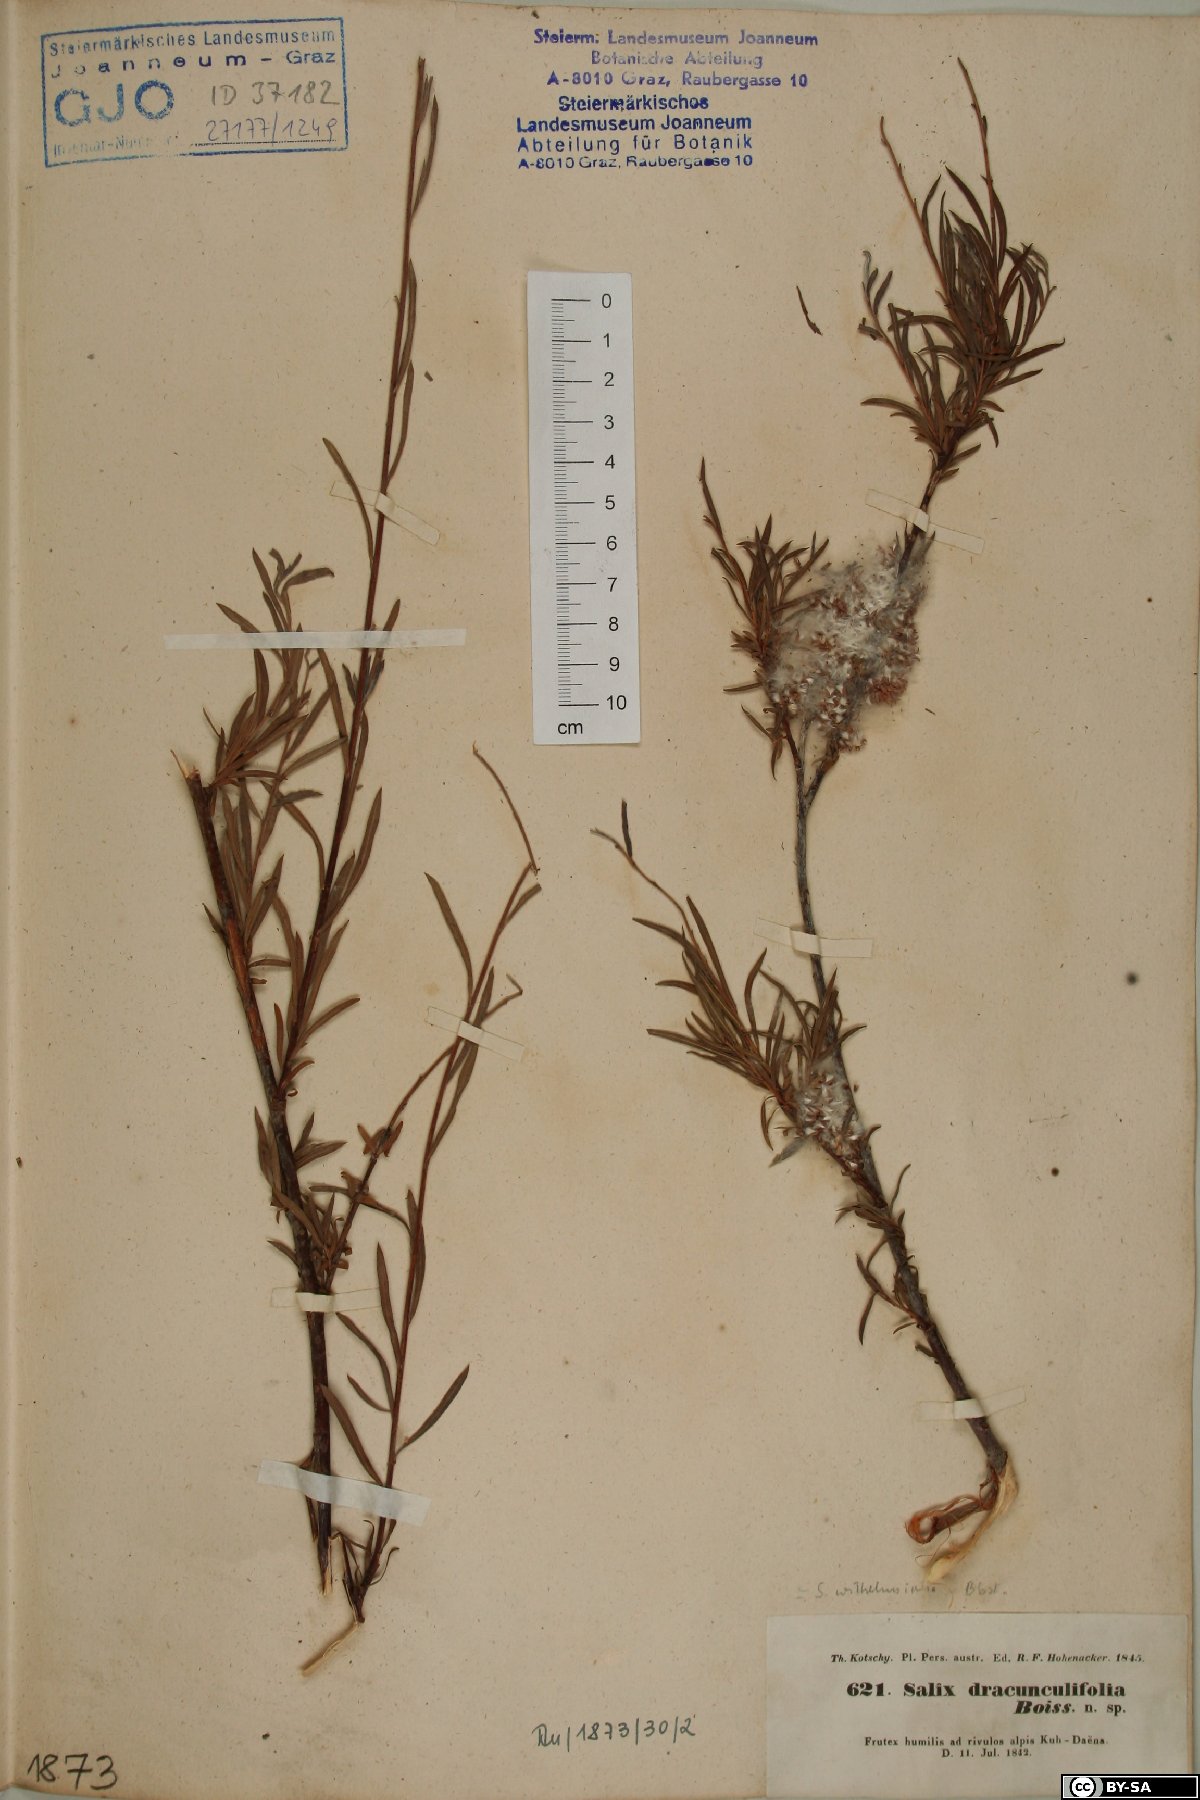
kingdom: Plantae
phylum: Tracheophyta
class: Magnoliopsida
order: Malpighiales
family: Salicaceae
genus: Salix
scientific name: Salix wilhelmsiana
